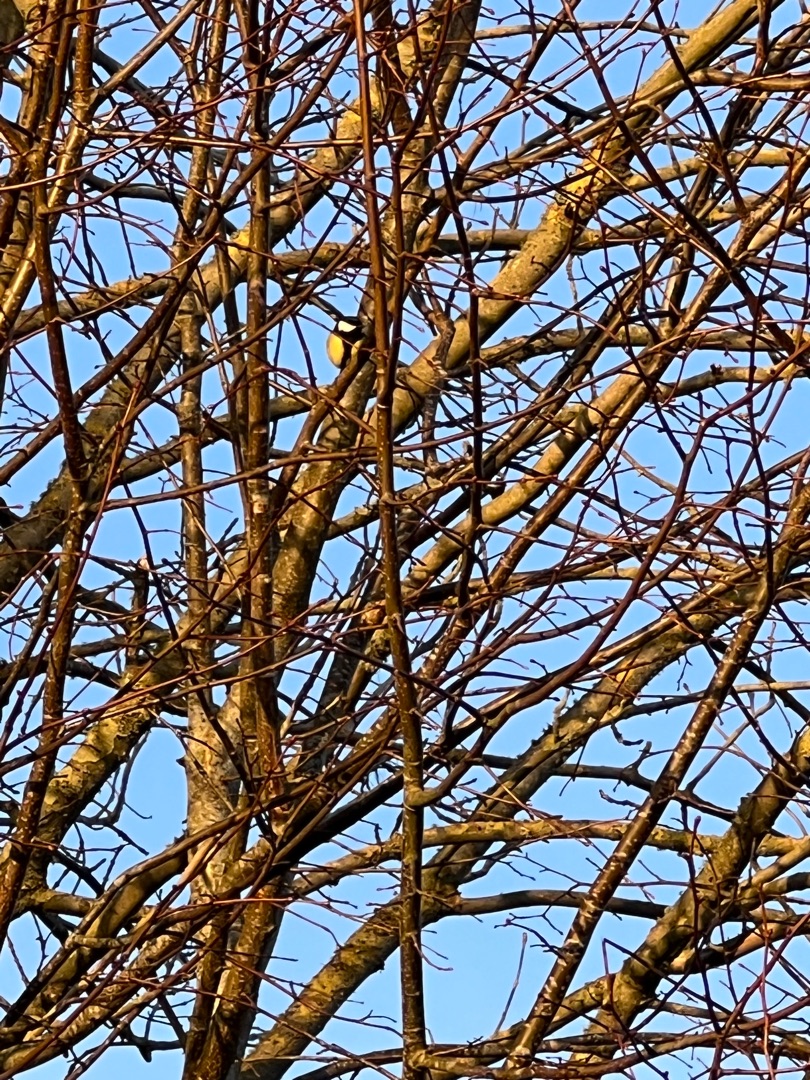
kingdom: Animalia
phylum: Chordata
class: Aves
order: Passeriformes
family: Paridae
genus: Parus
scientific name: Parus major
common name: Musvit
